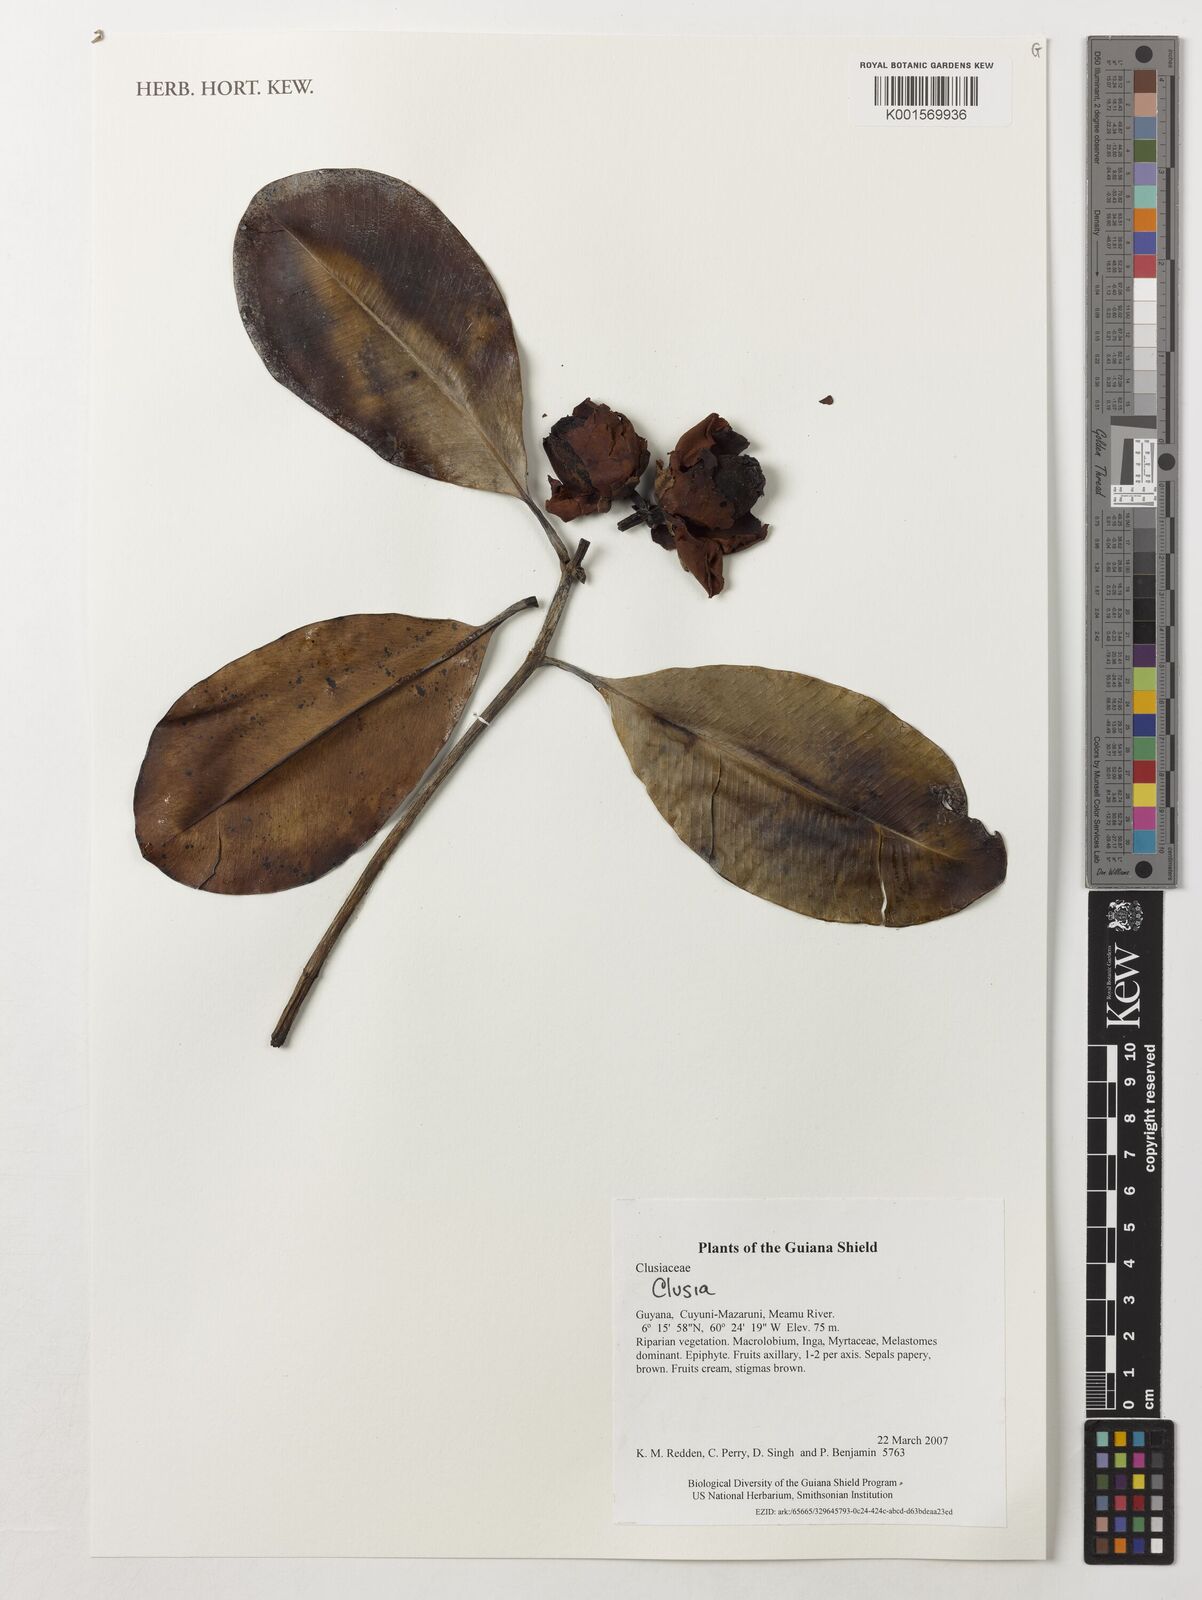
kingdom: Plantae
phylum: Tracheophyta
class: Magnoliopsida
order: Malpighiales
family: Clusiaceae
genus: Clusia
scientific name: Clusia
